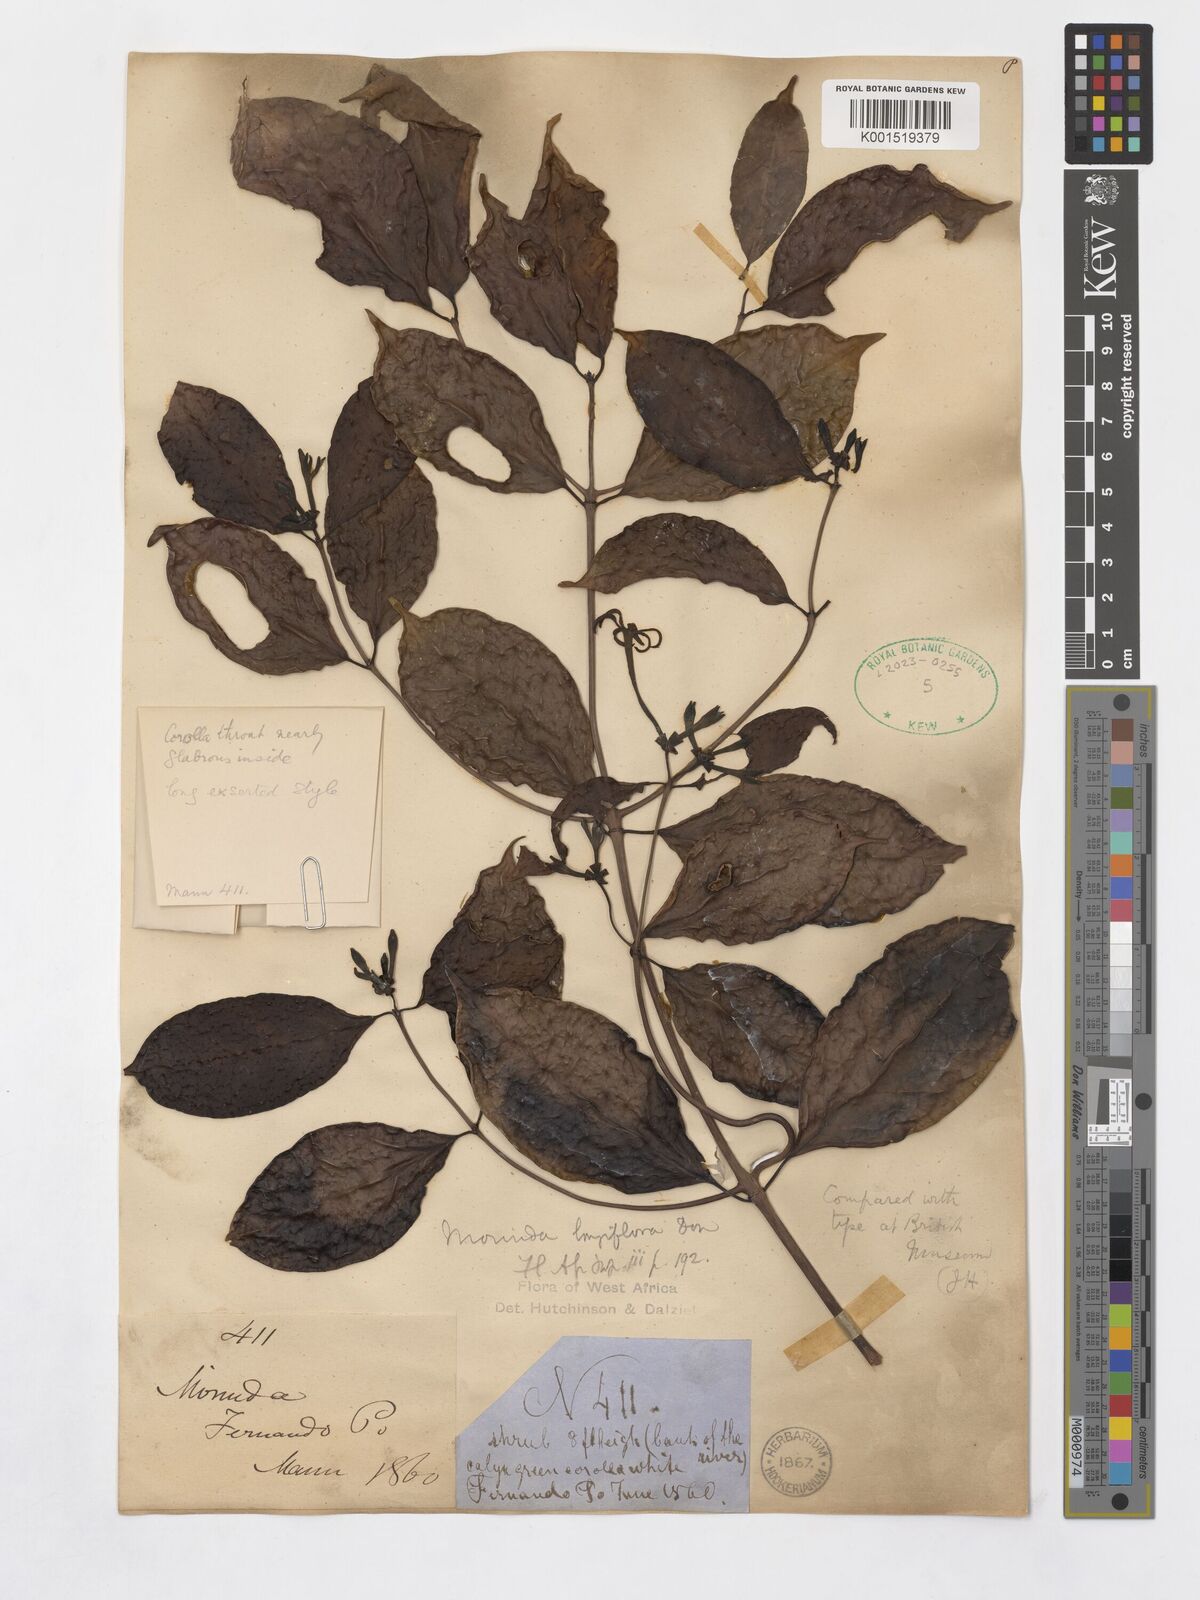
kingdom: Plantae
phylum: Tracheophyta
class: Magnoliopsida
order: Gentianales
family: Rubiaceae
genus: Morinda
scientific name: Morinda longiflora
